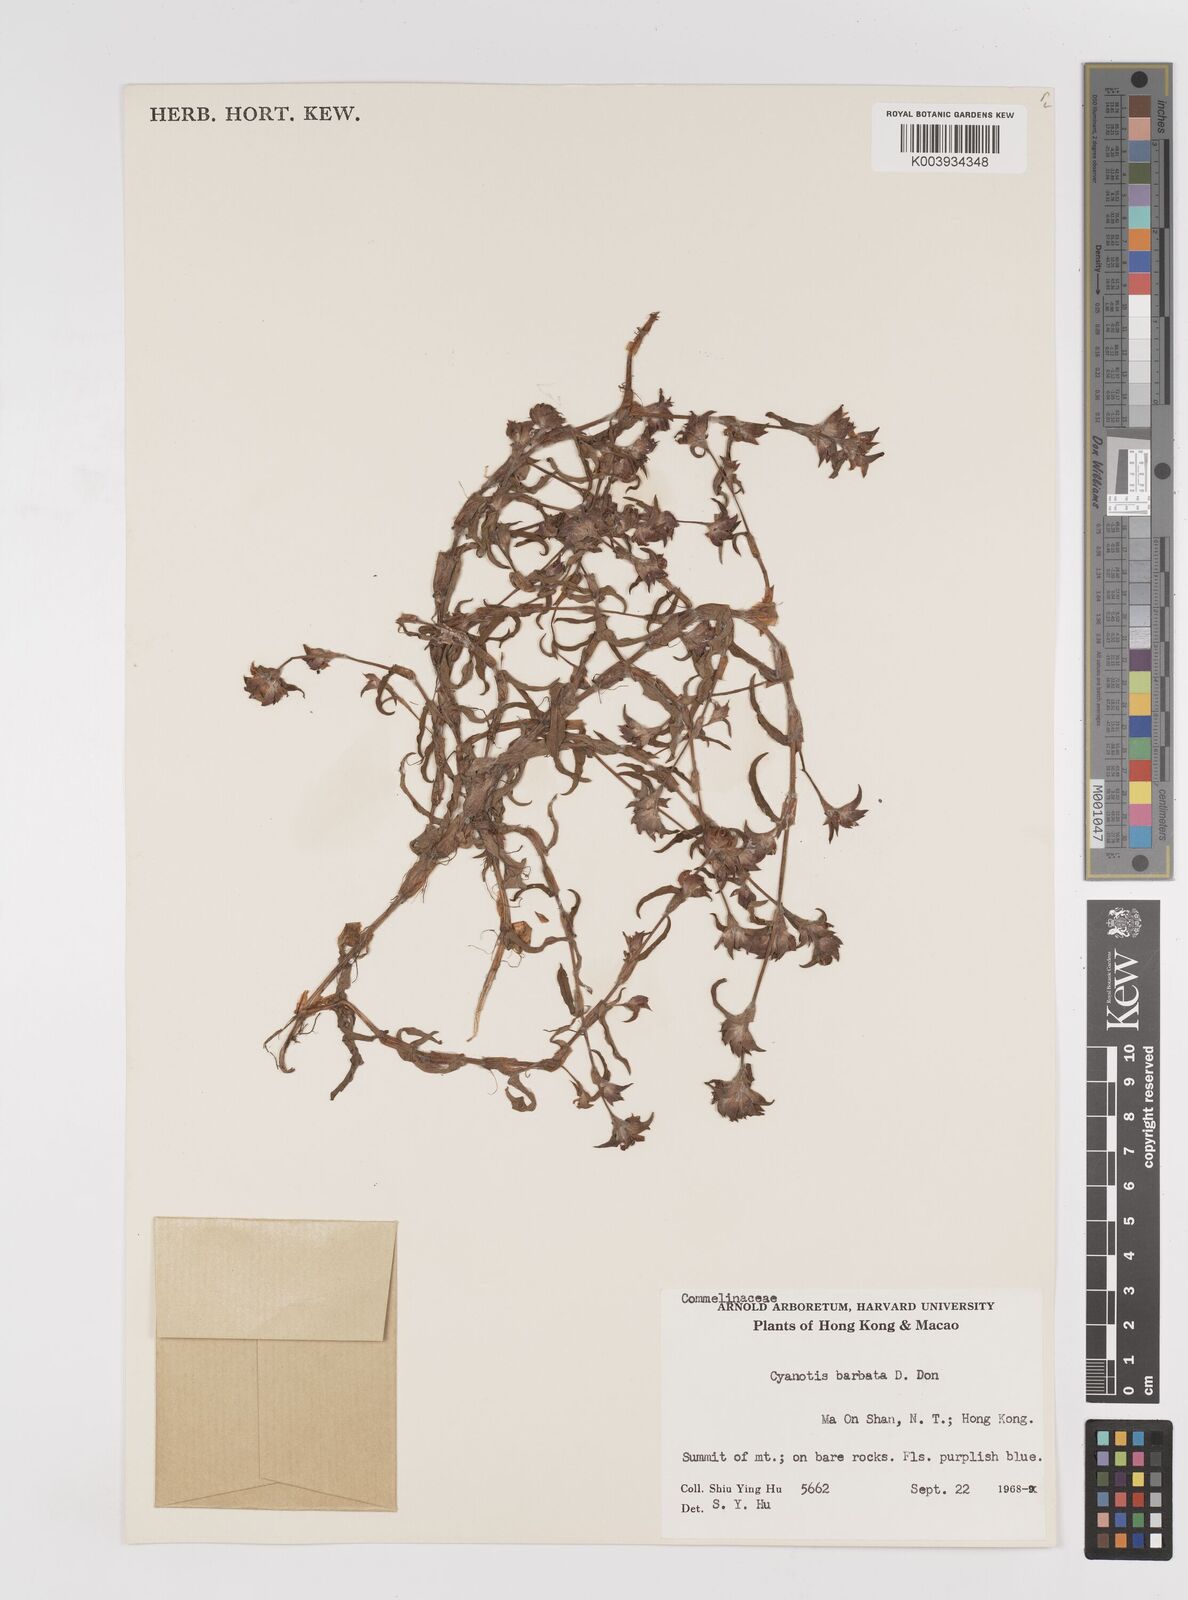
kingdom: Plantae
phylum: Tracheophyta
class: Liliopsida
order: Commelinales
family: Commelinaceae
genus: Cyanotis
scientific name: Cyanotis vaga
